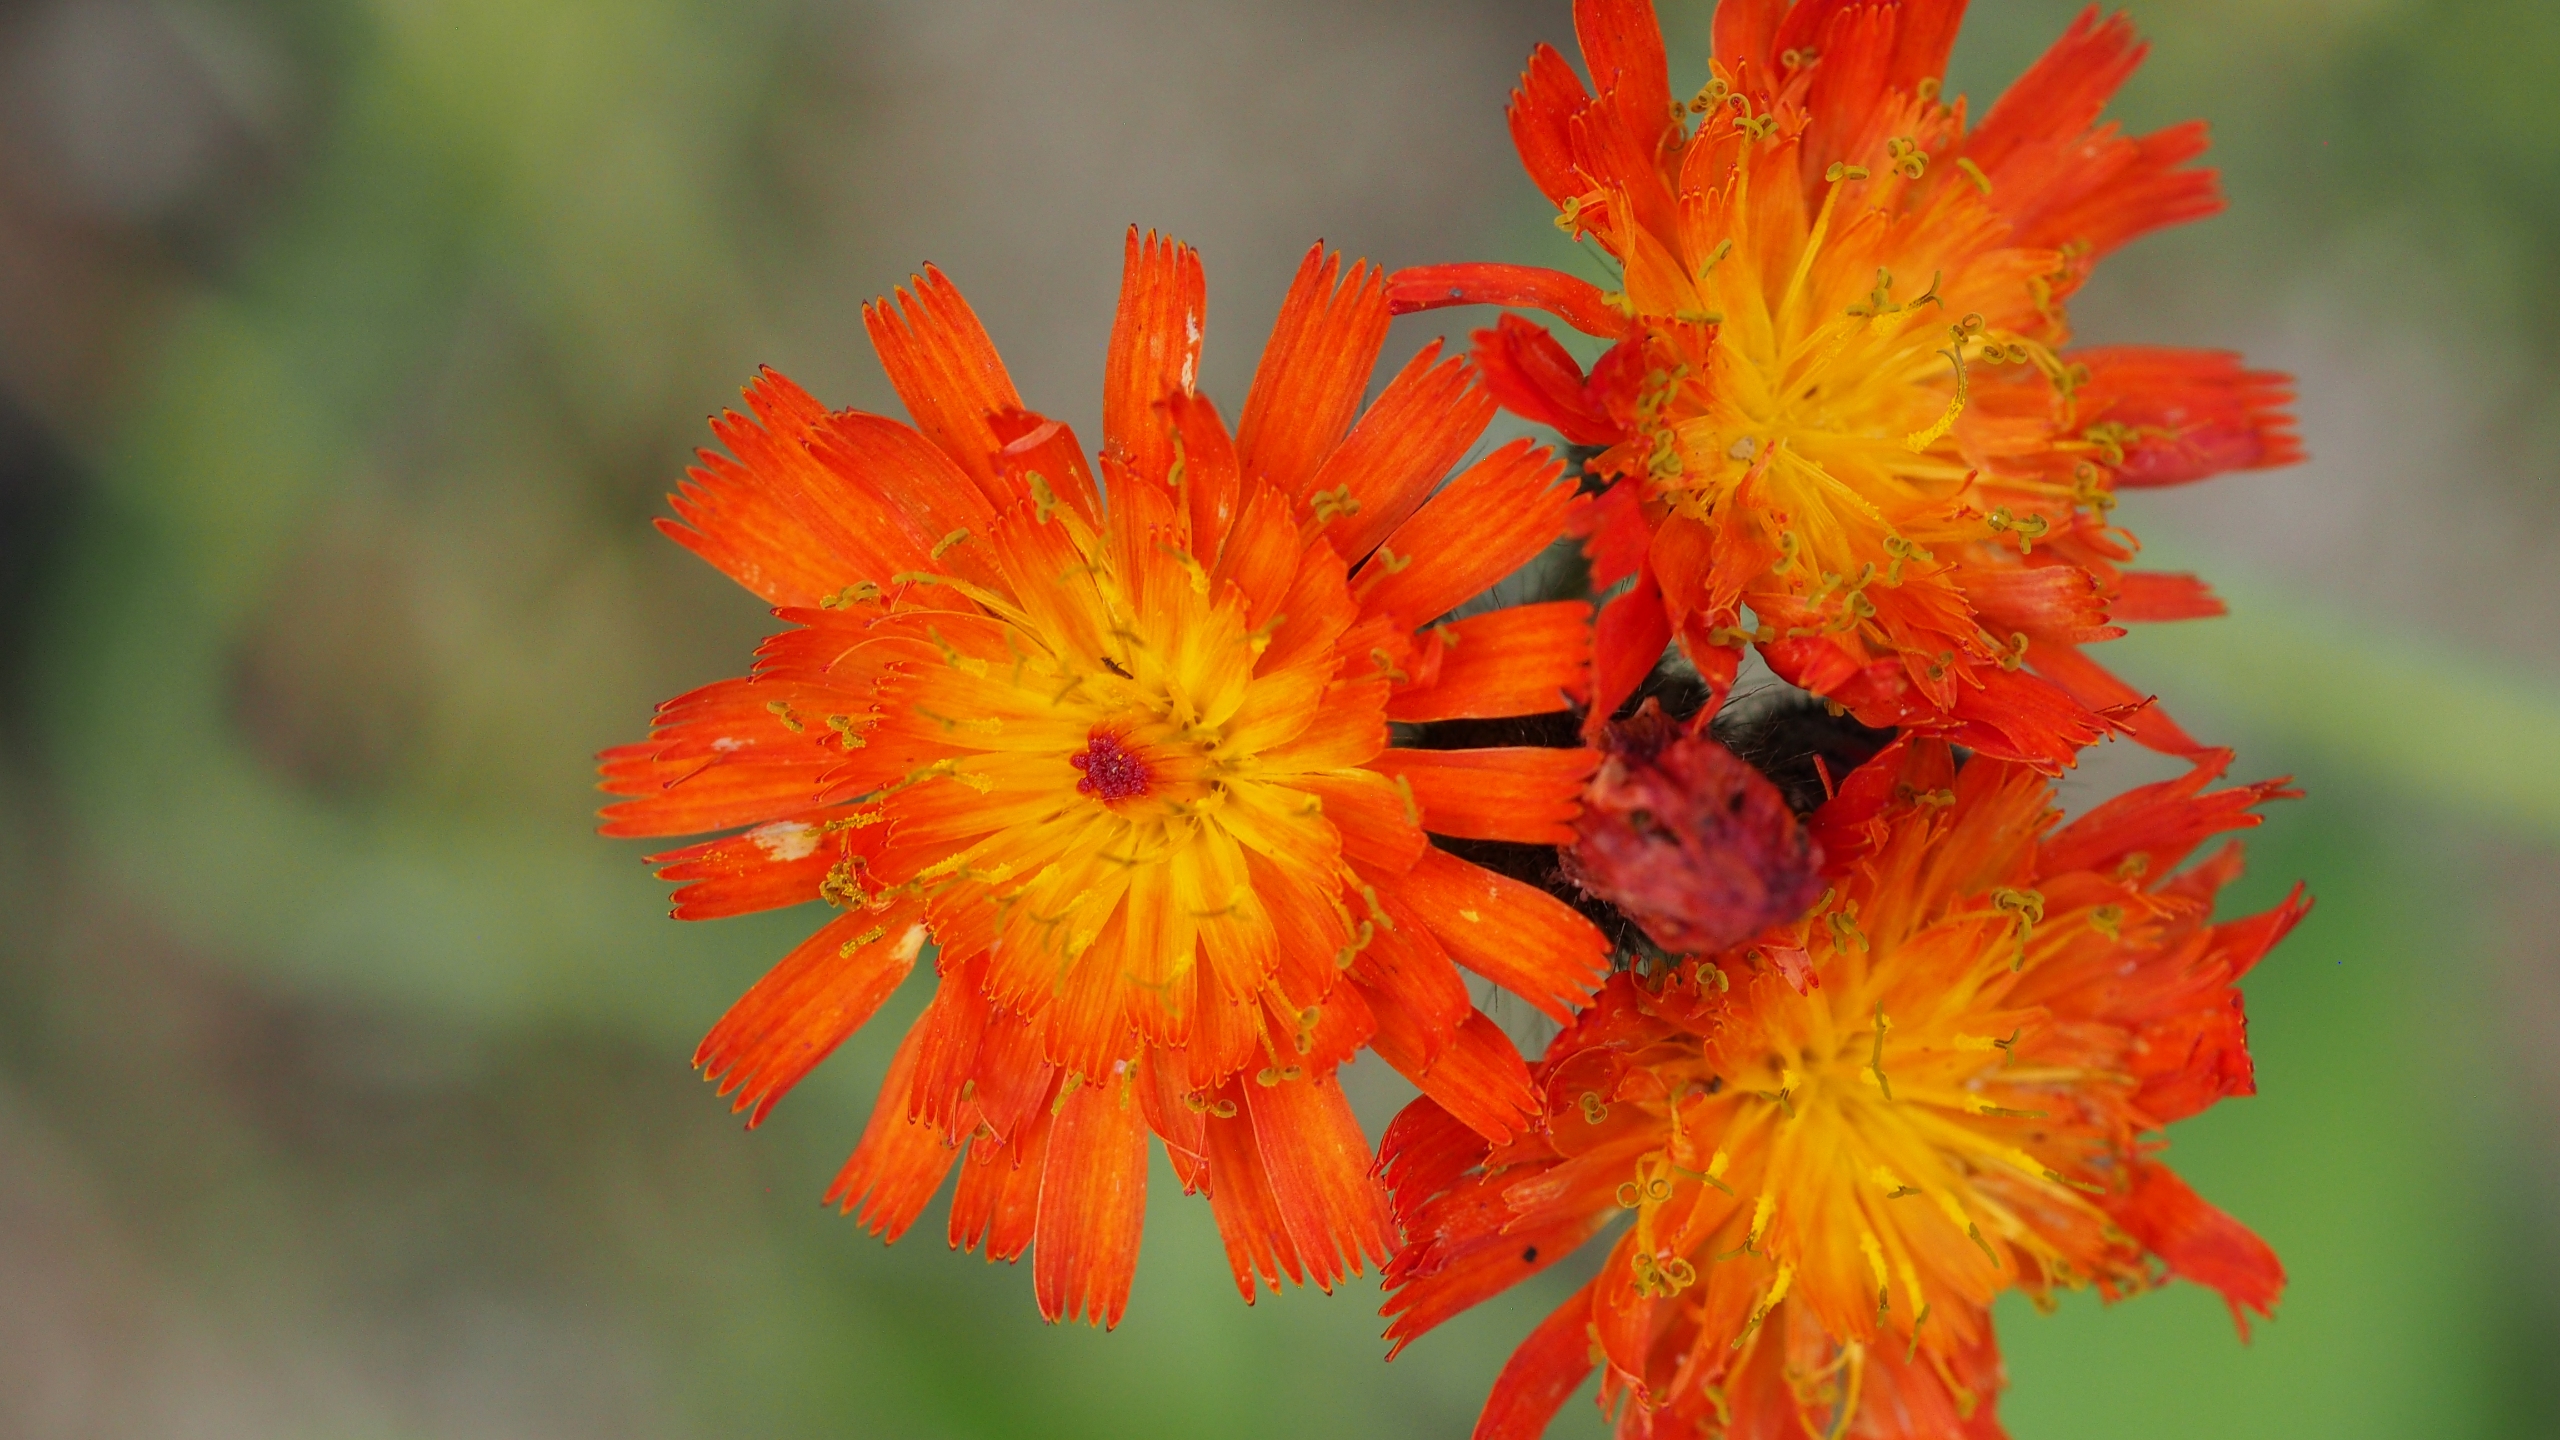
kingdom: Plantae
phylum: Tracheophyta
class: Magnoliopsida
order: Asterales
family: Asteraceae
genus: Pilosella
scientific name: Pilosella aurantiaca
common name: Pomerans-høgeurt
